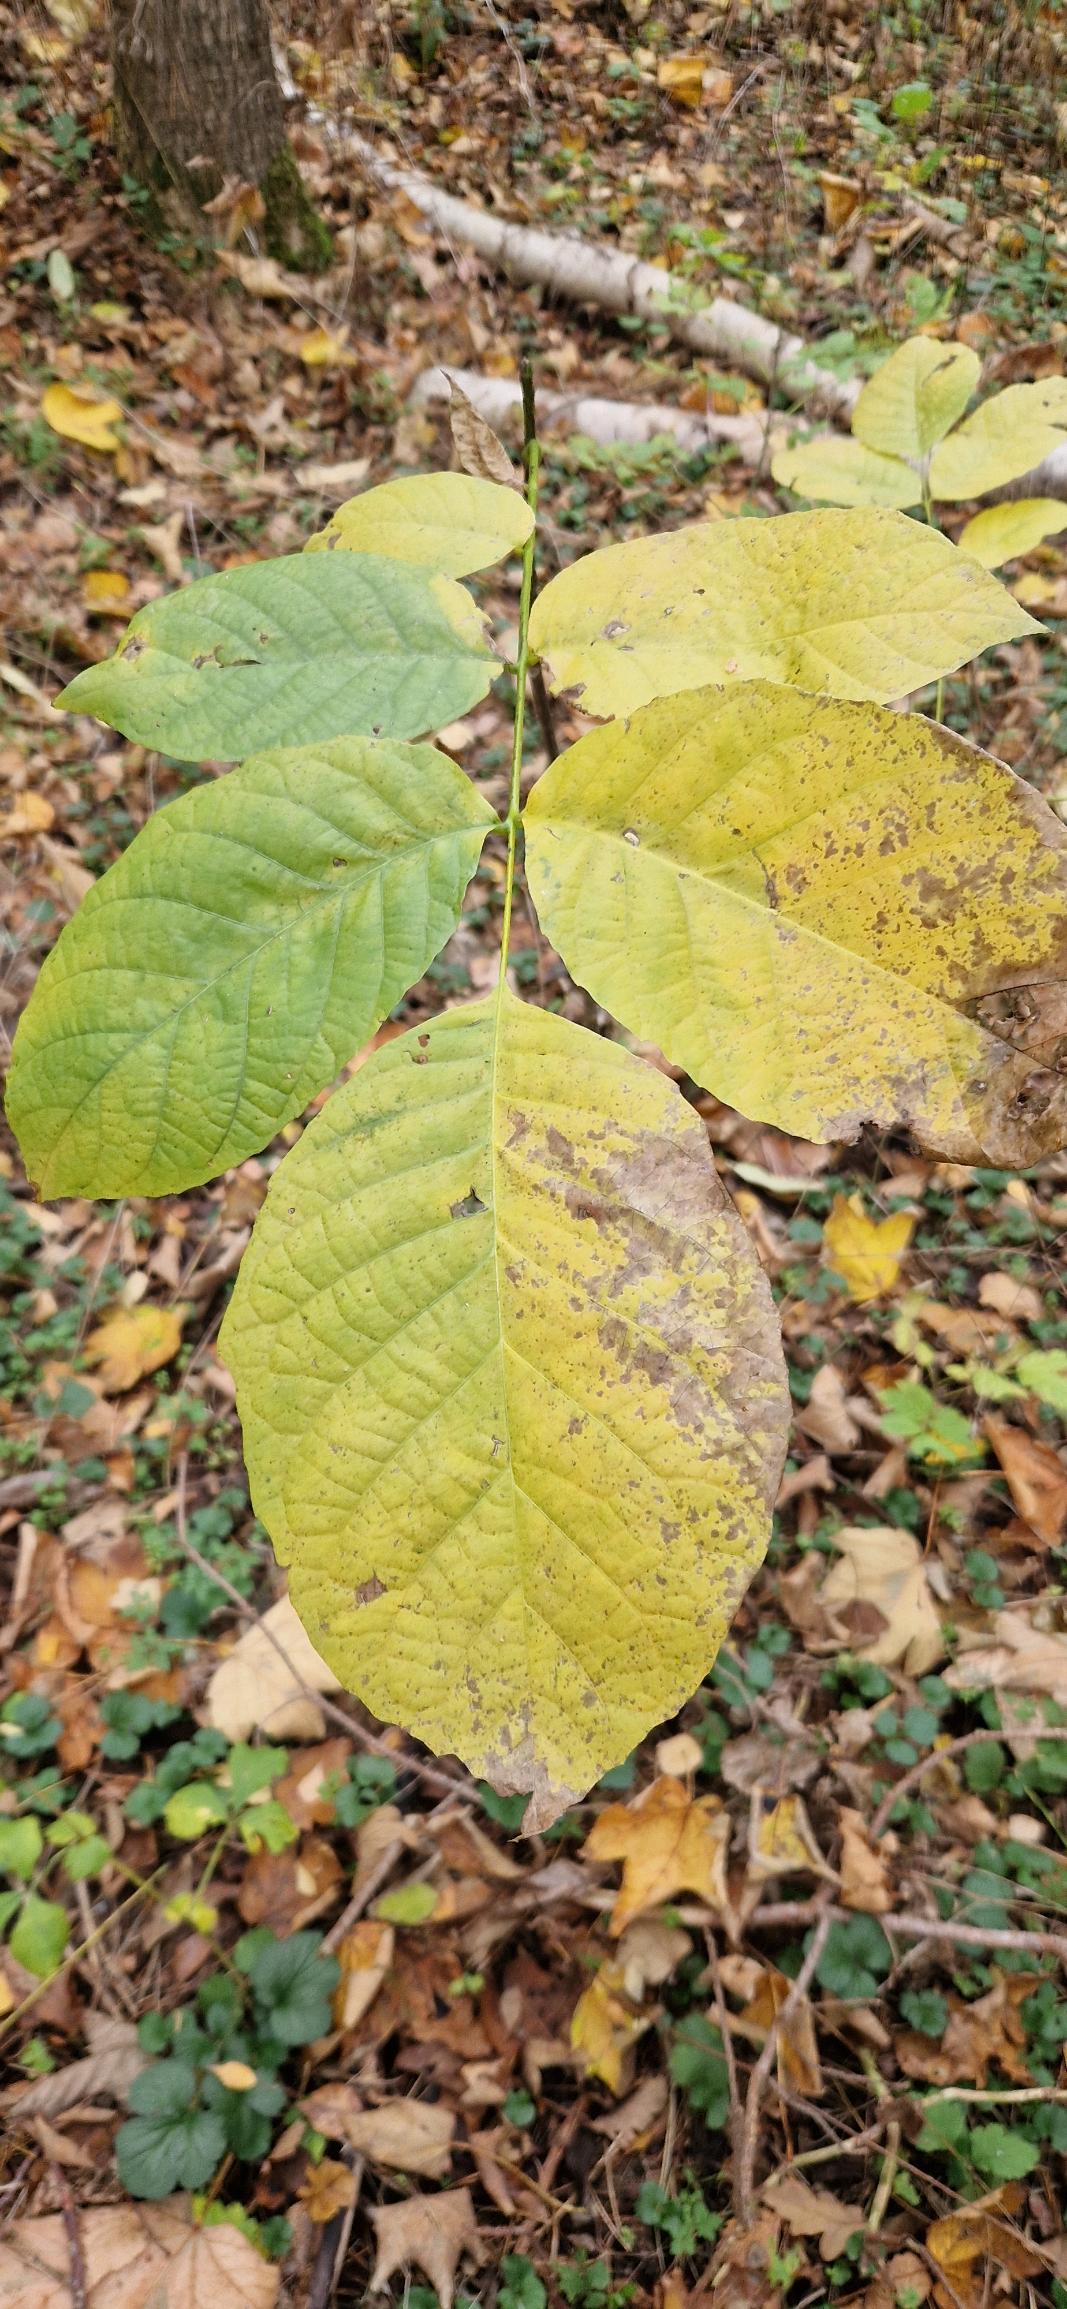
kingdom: Plantae
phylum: Tracheophyta
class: Magnoliopsida
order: Fagales
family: Juglandaceae
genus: Juglans
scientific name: Juglans regia
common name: Almindelig valnød
